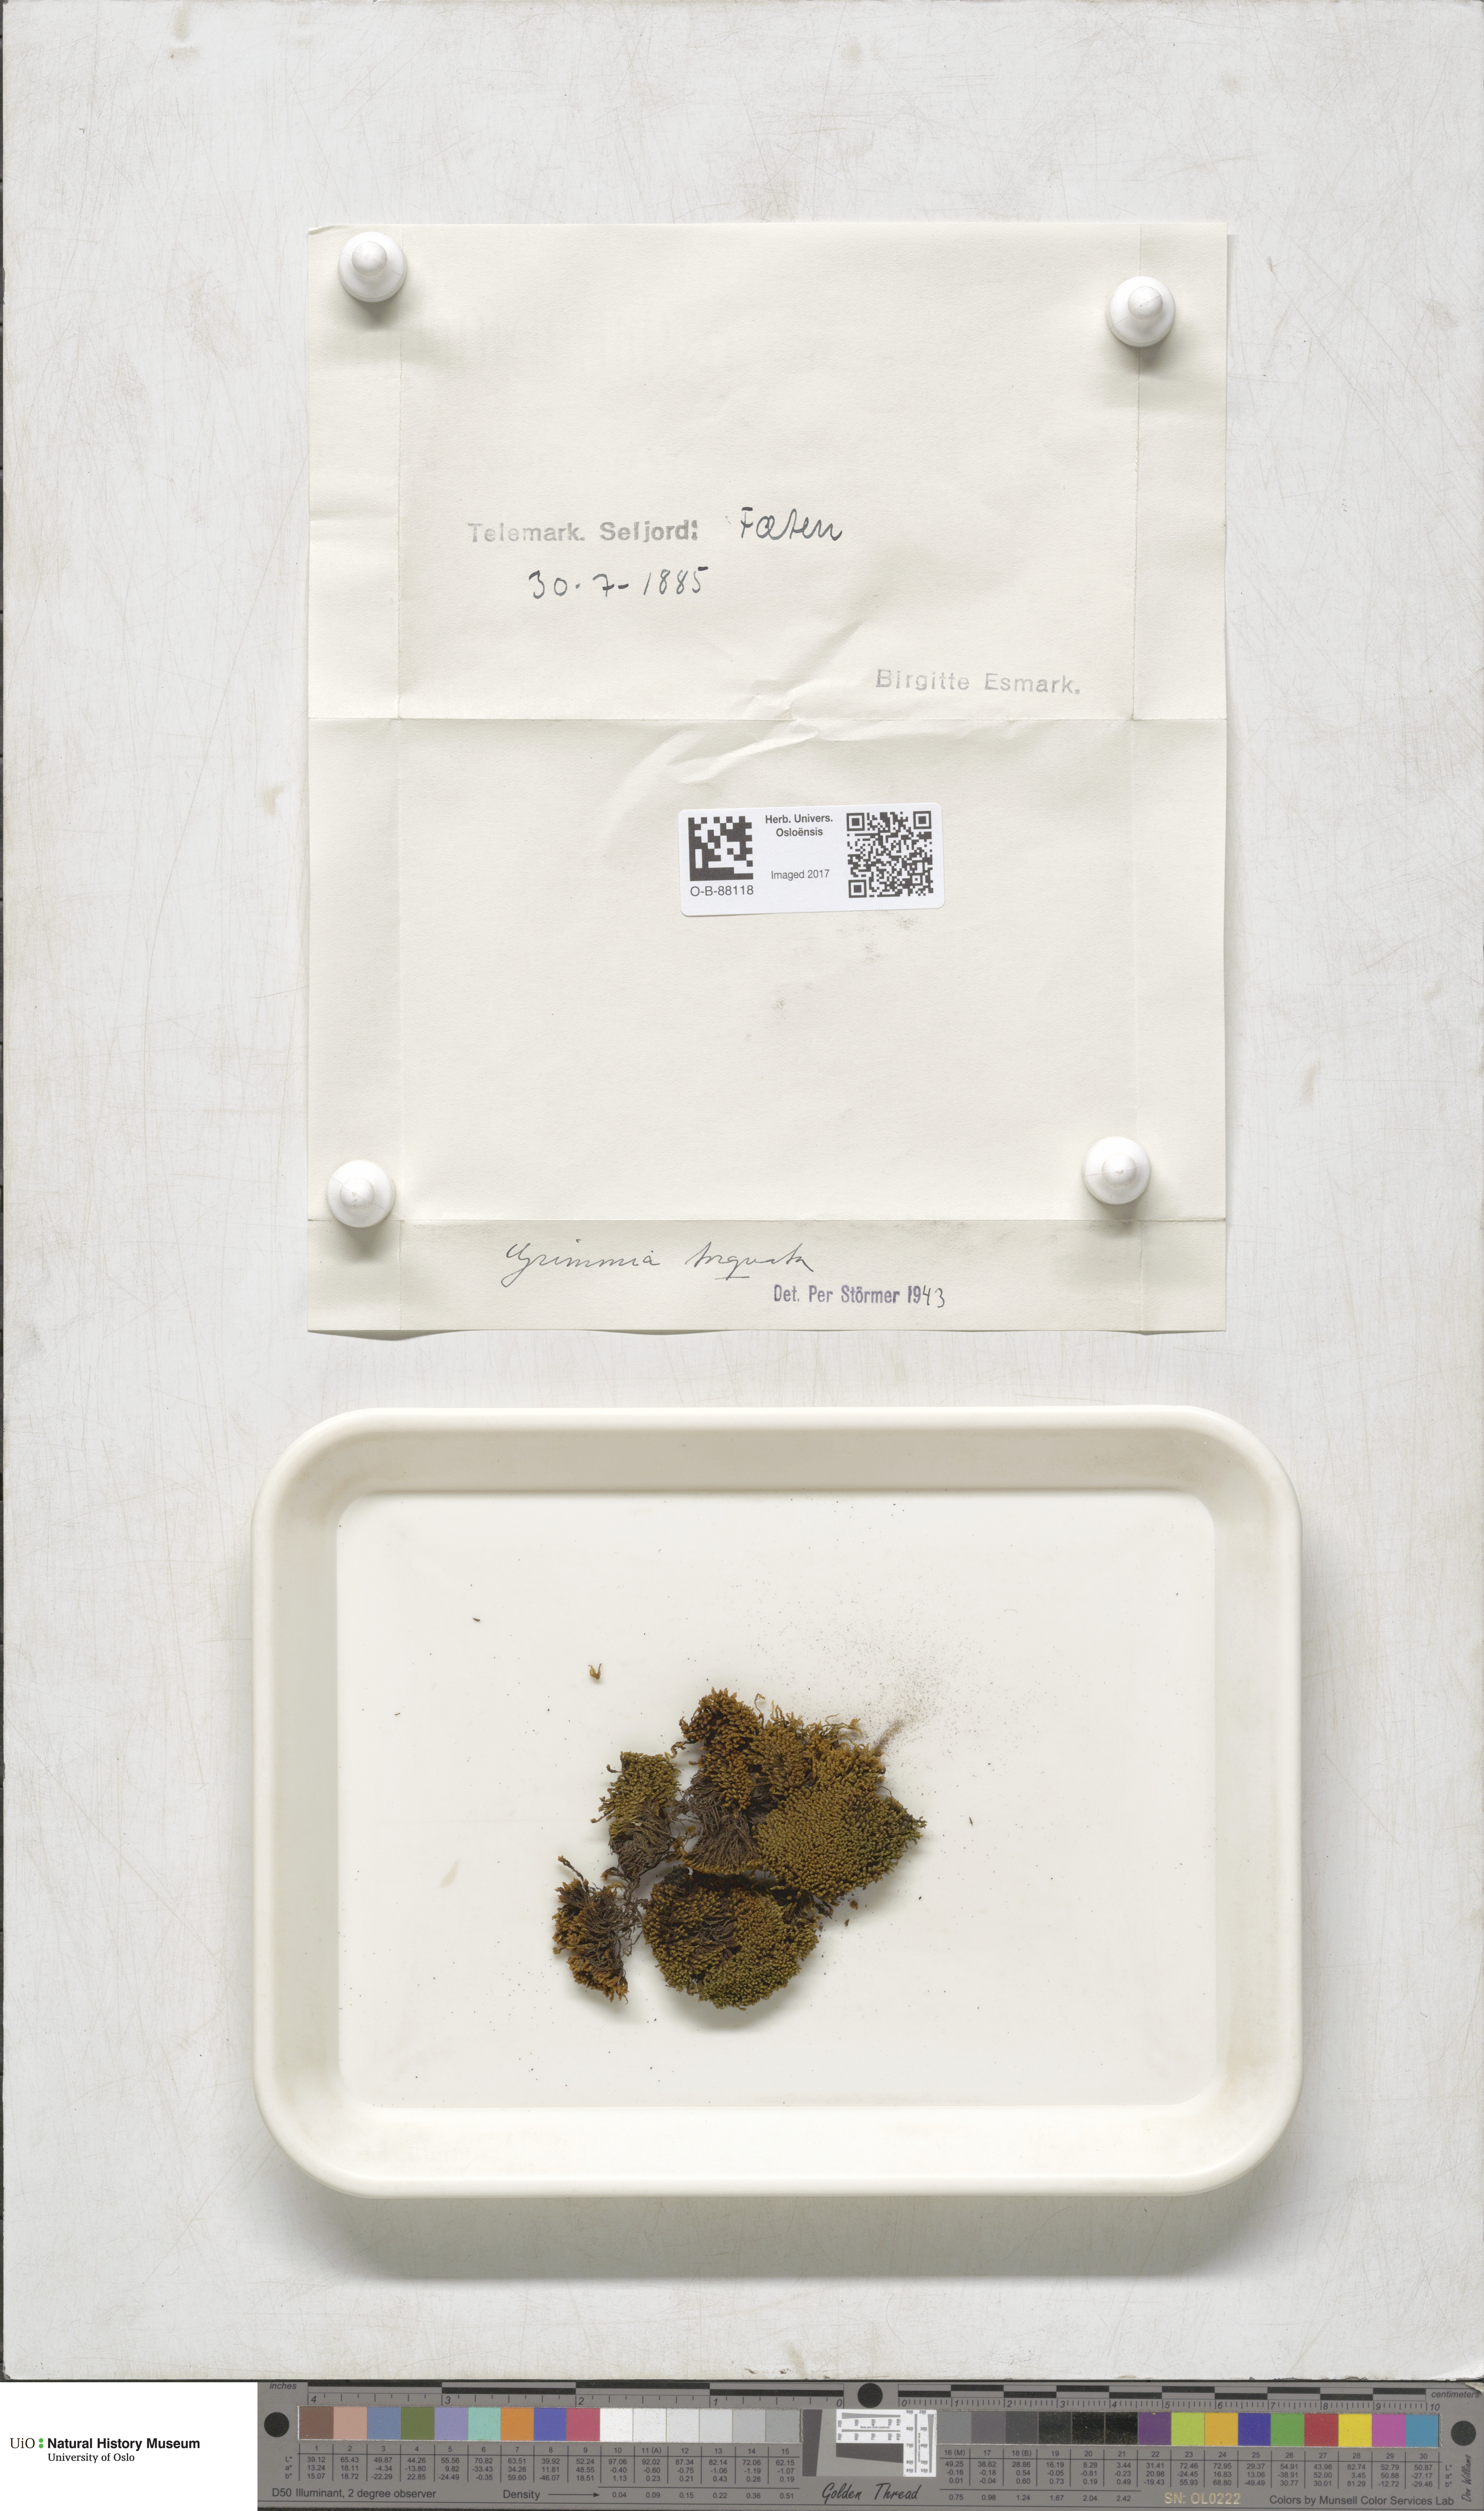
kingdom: Plantae
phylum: Bryophyta
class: Bryopsida
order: Grimmiales
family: Grimmiaceae
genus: Grimmia
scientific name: Grimmia torquata
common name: Twisted grimmia
